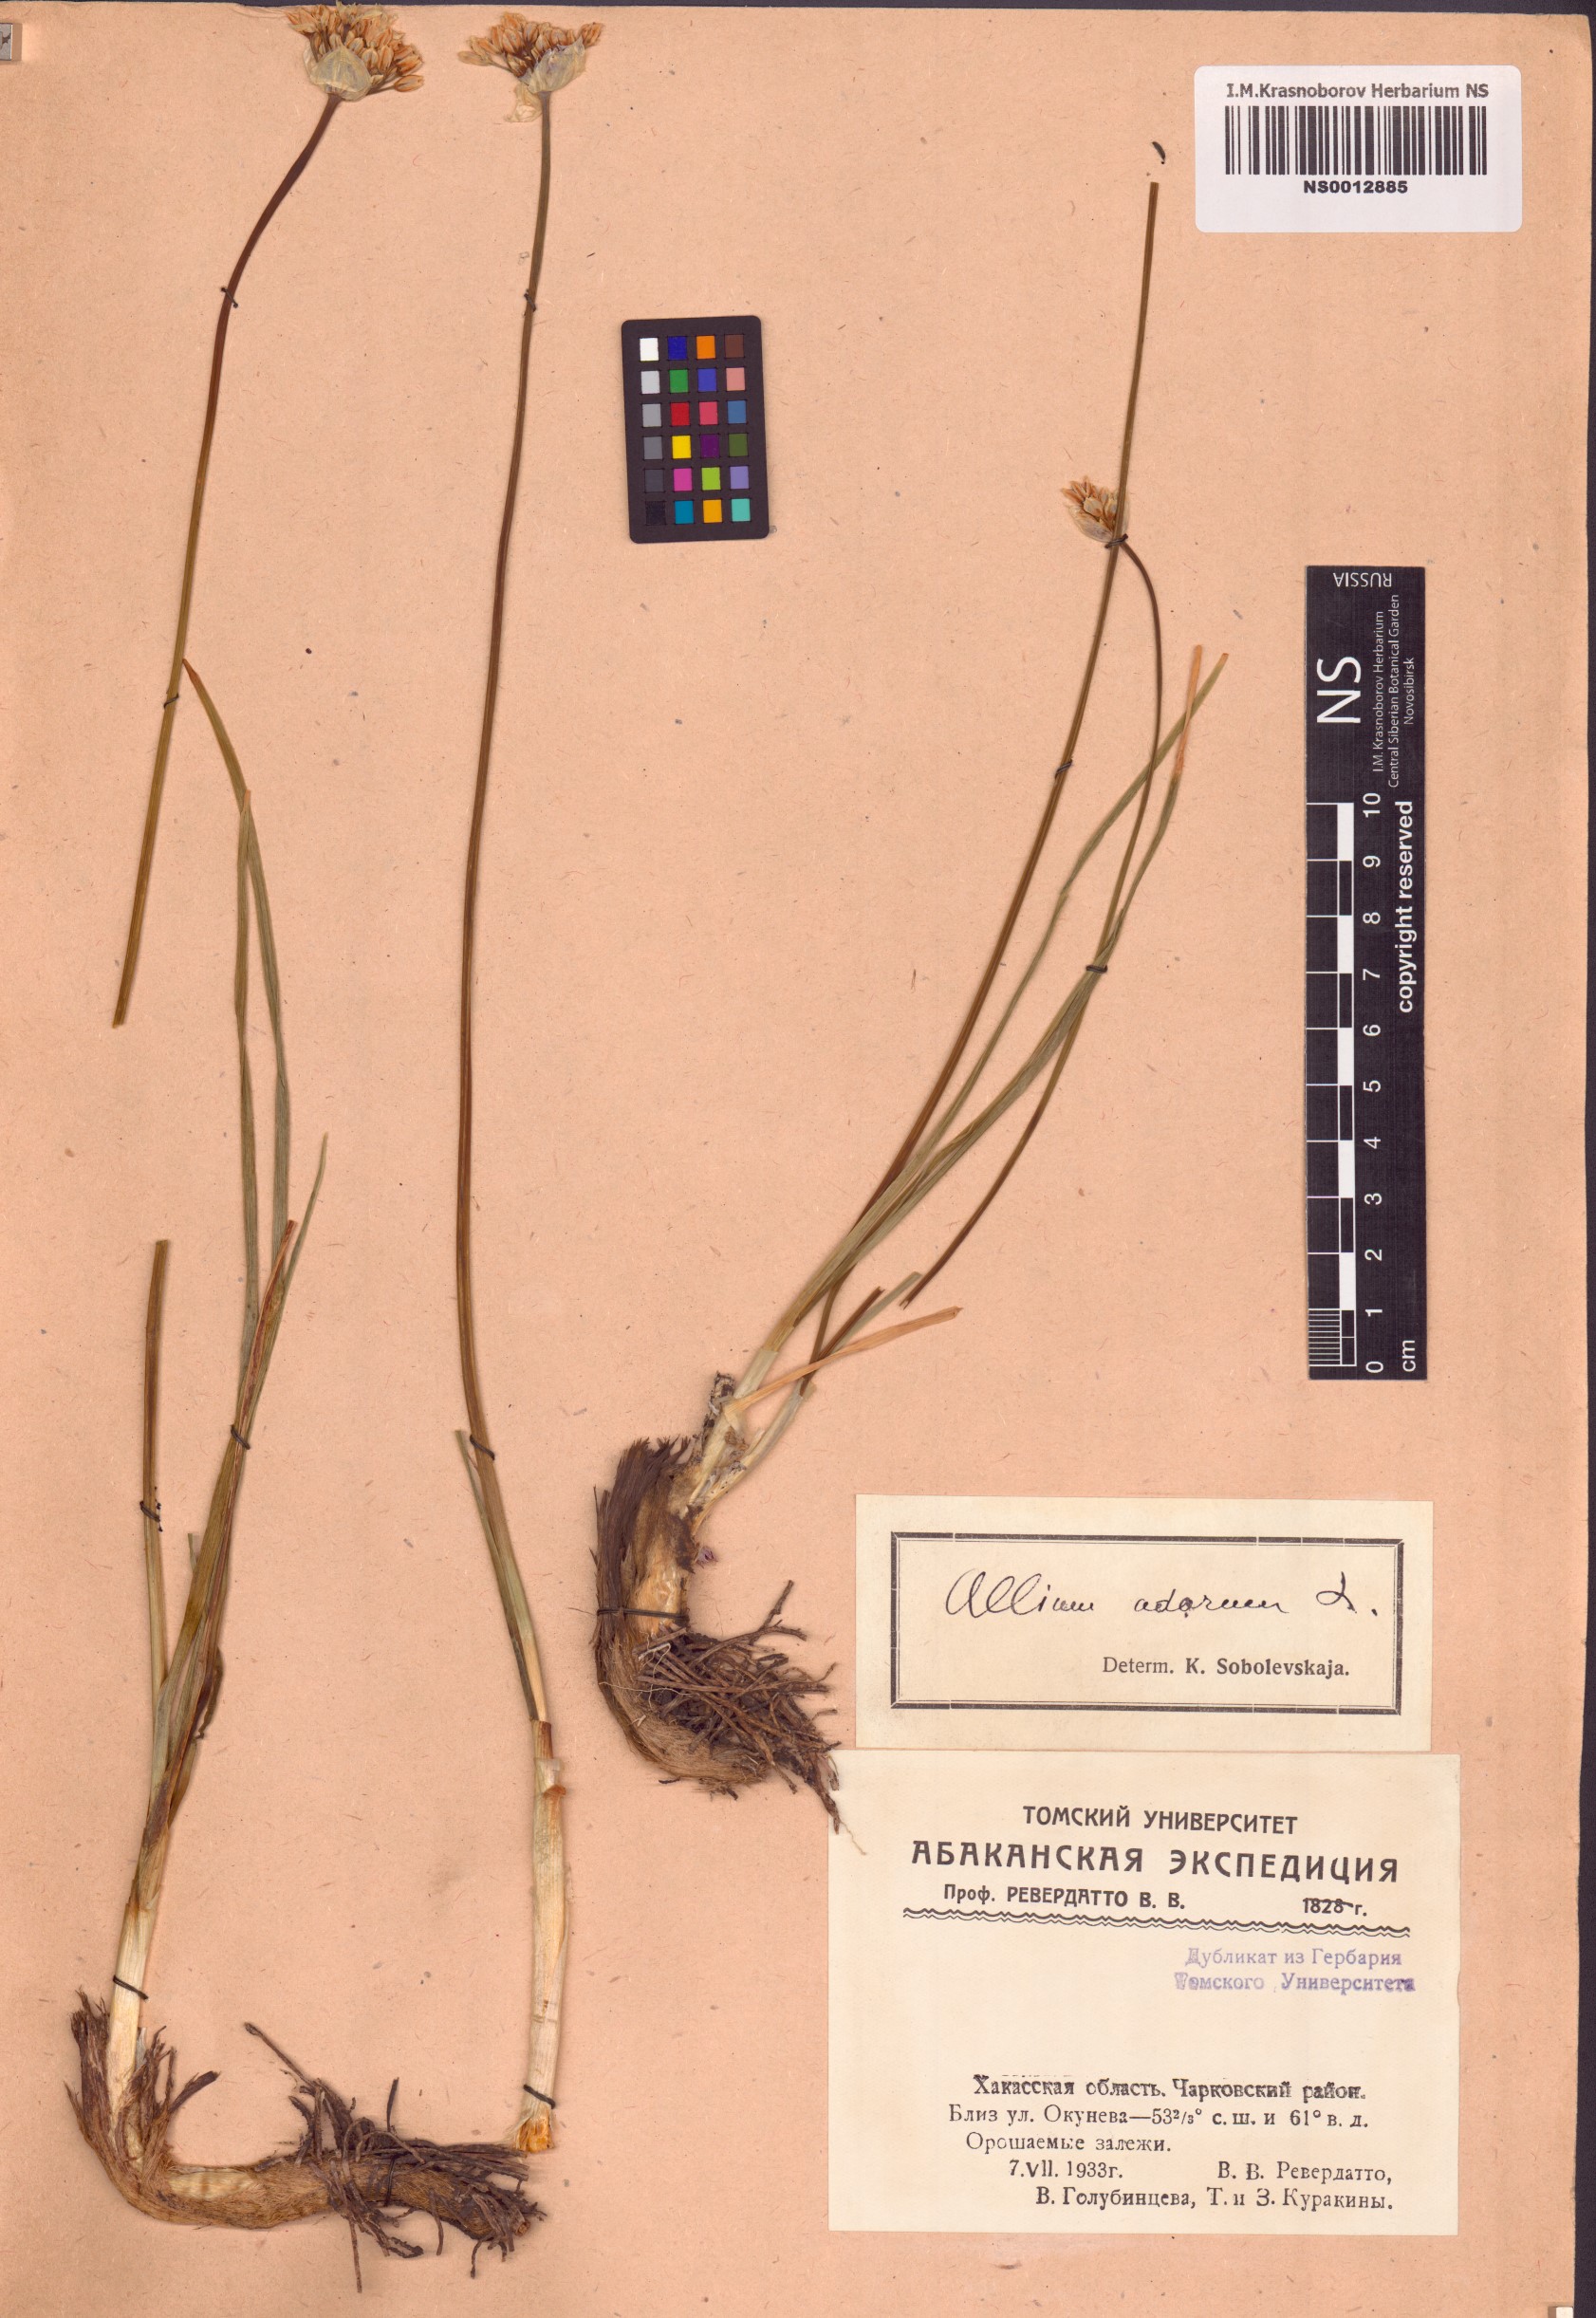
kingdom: Plantae
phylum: Tracheophyta
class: Liliopsida
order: Asparagales
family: Amaryllidaceae
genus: Allium
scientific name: Allium ramosum
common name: Fragrant garlic
